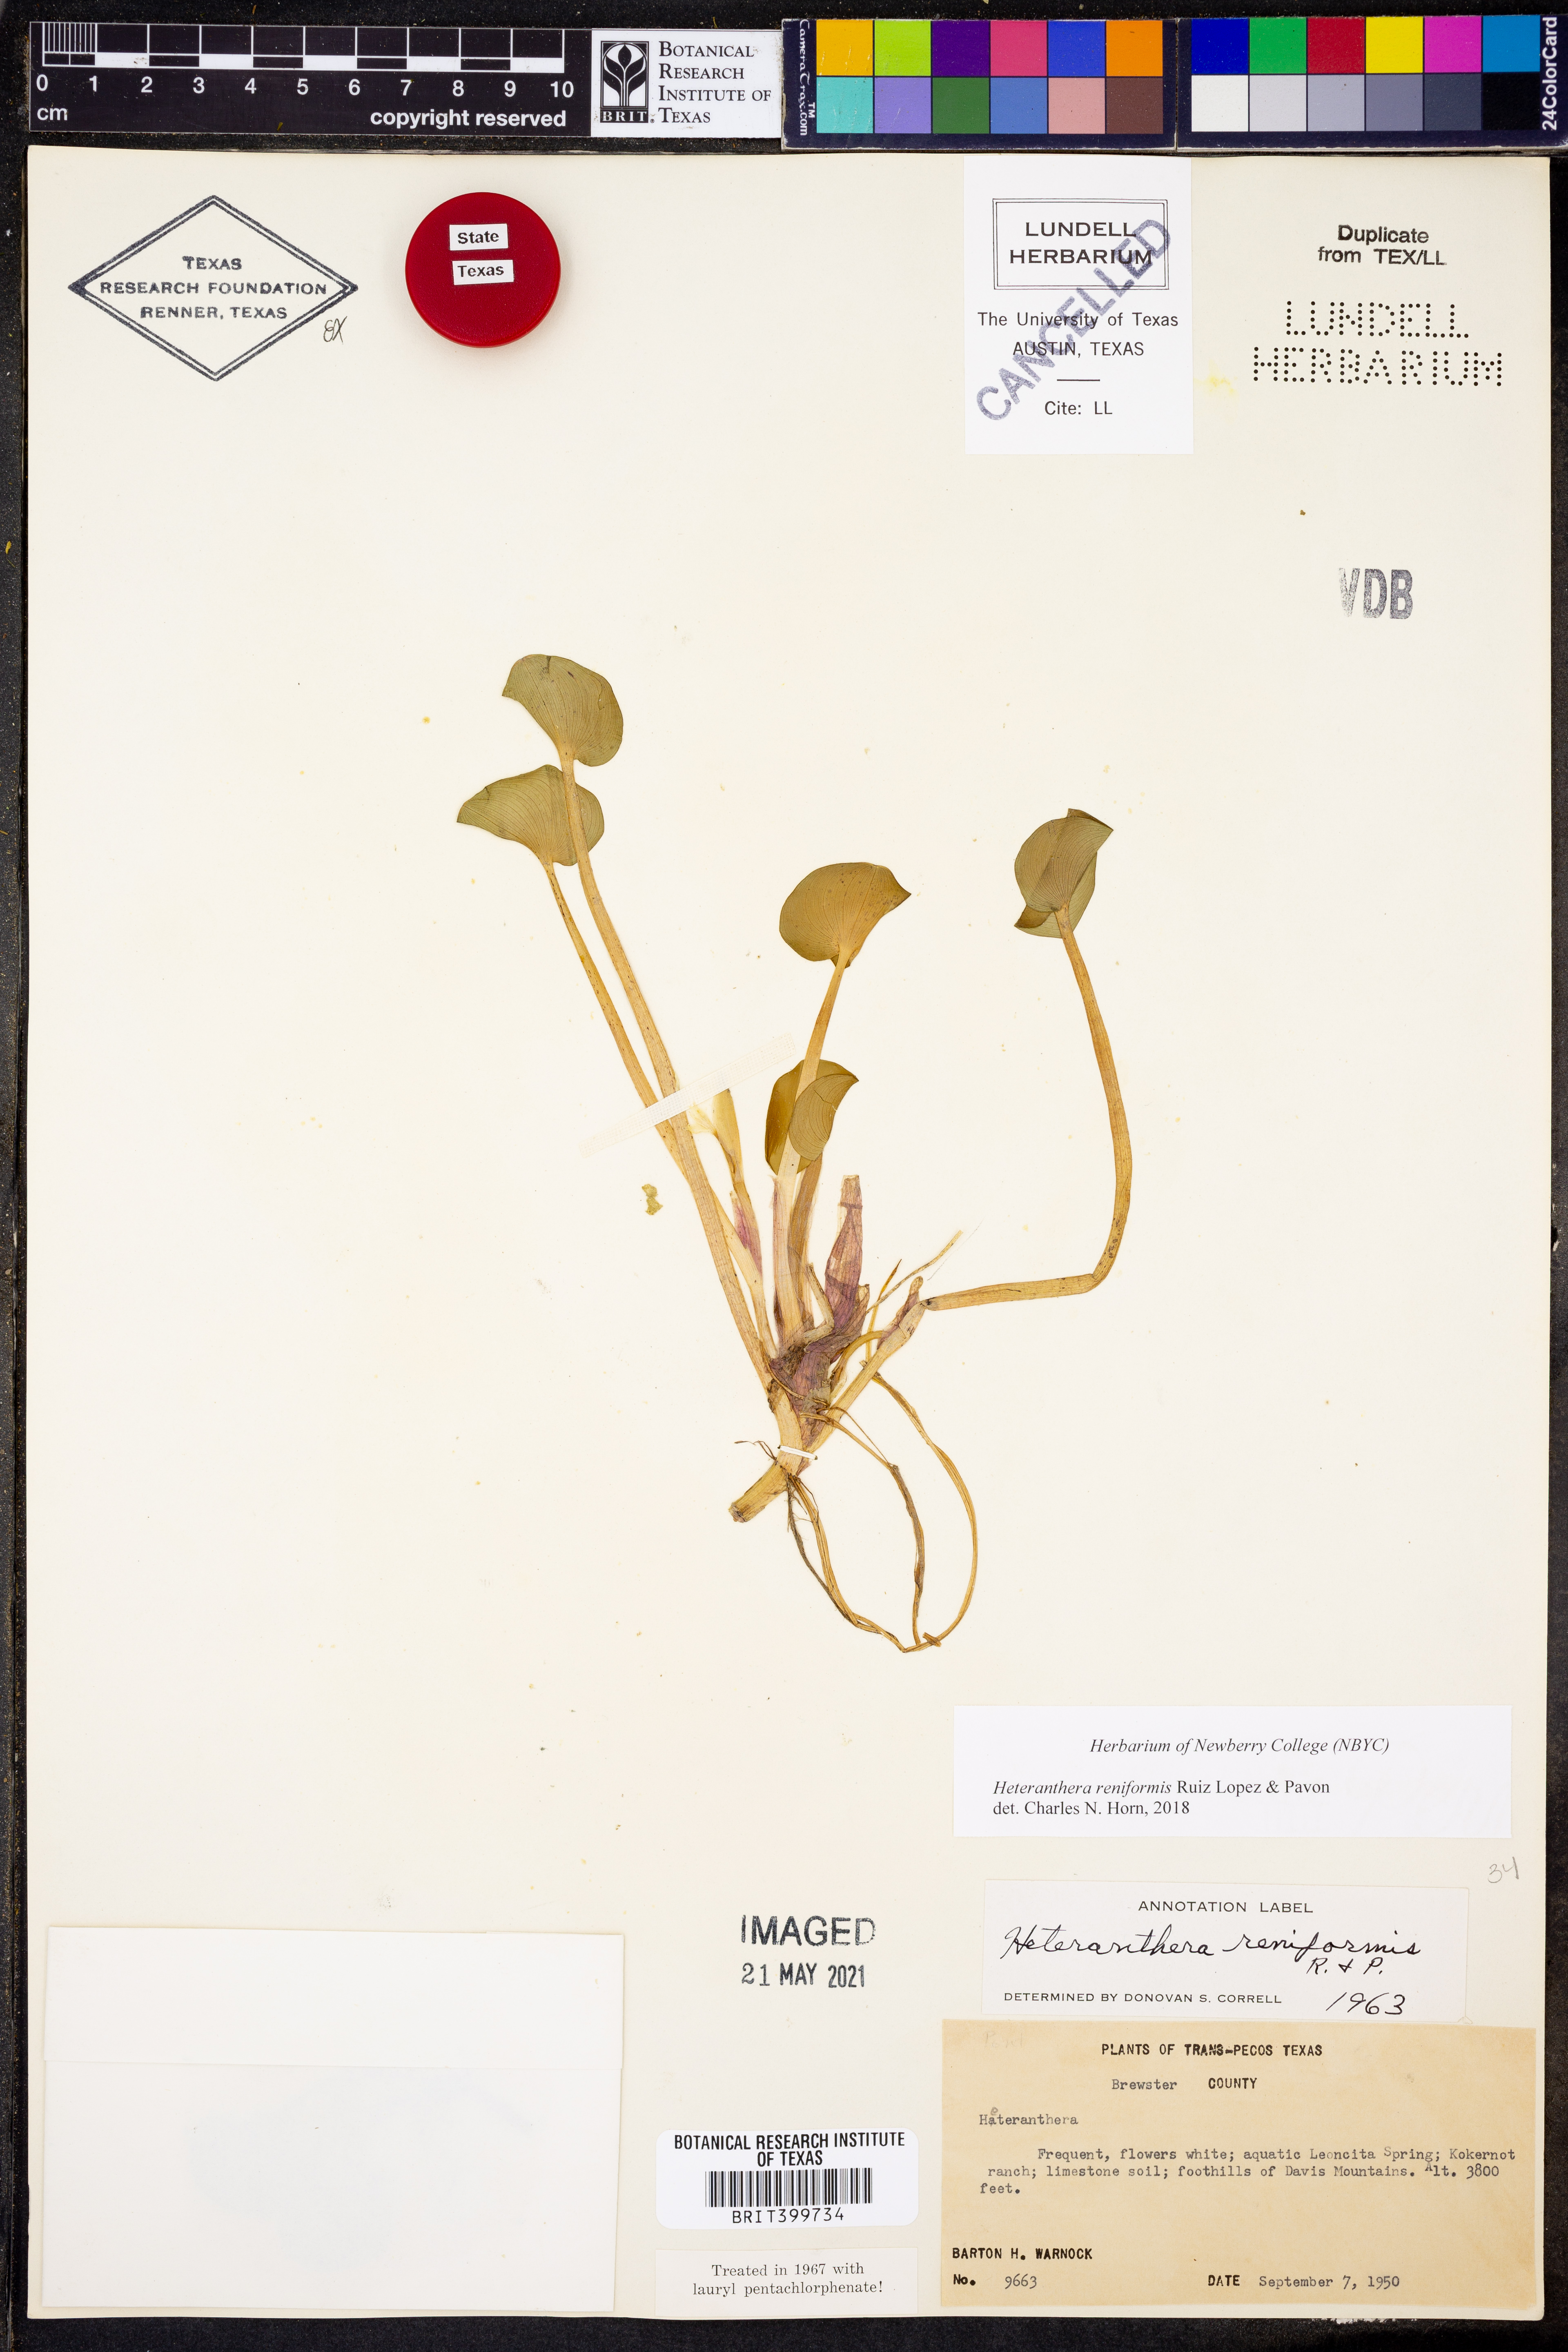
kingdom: Plantae
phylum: Tracheophyta
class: Liliopsida
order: Commelinales
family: Pontederiaceae
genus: Heteranthera
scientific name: Heteranthera reniformis
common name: Kidneyleaf mudplantain
